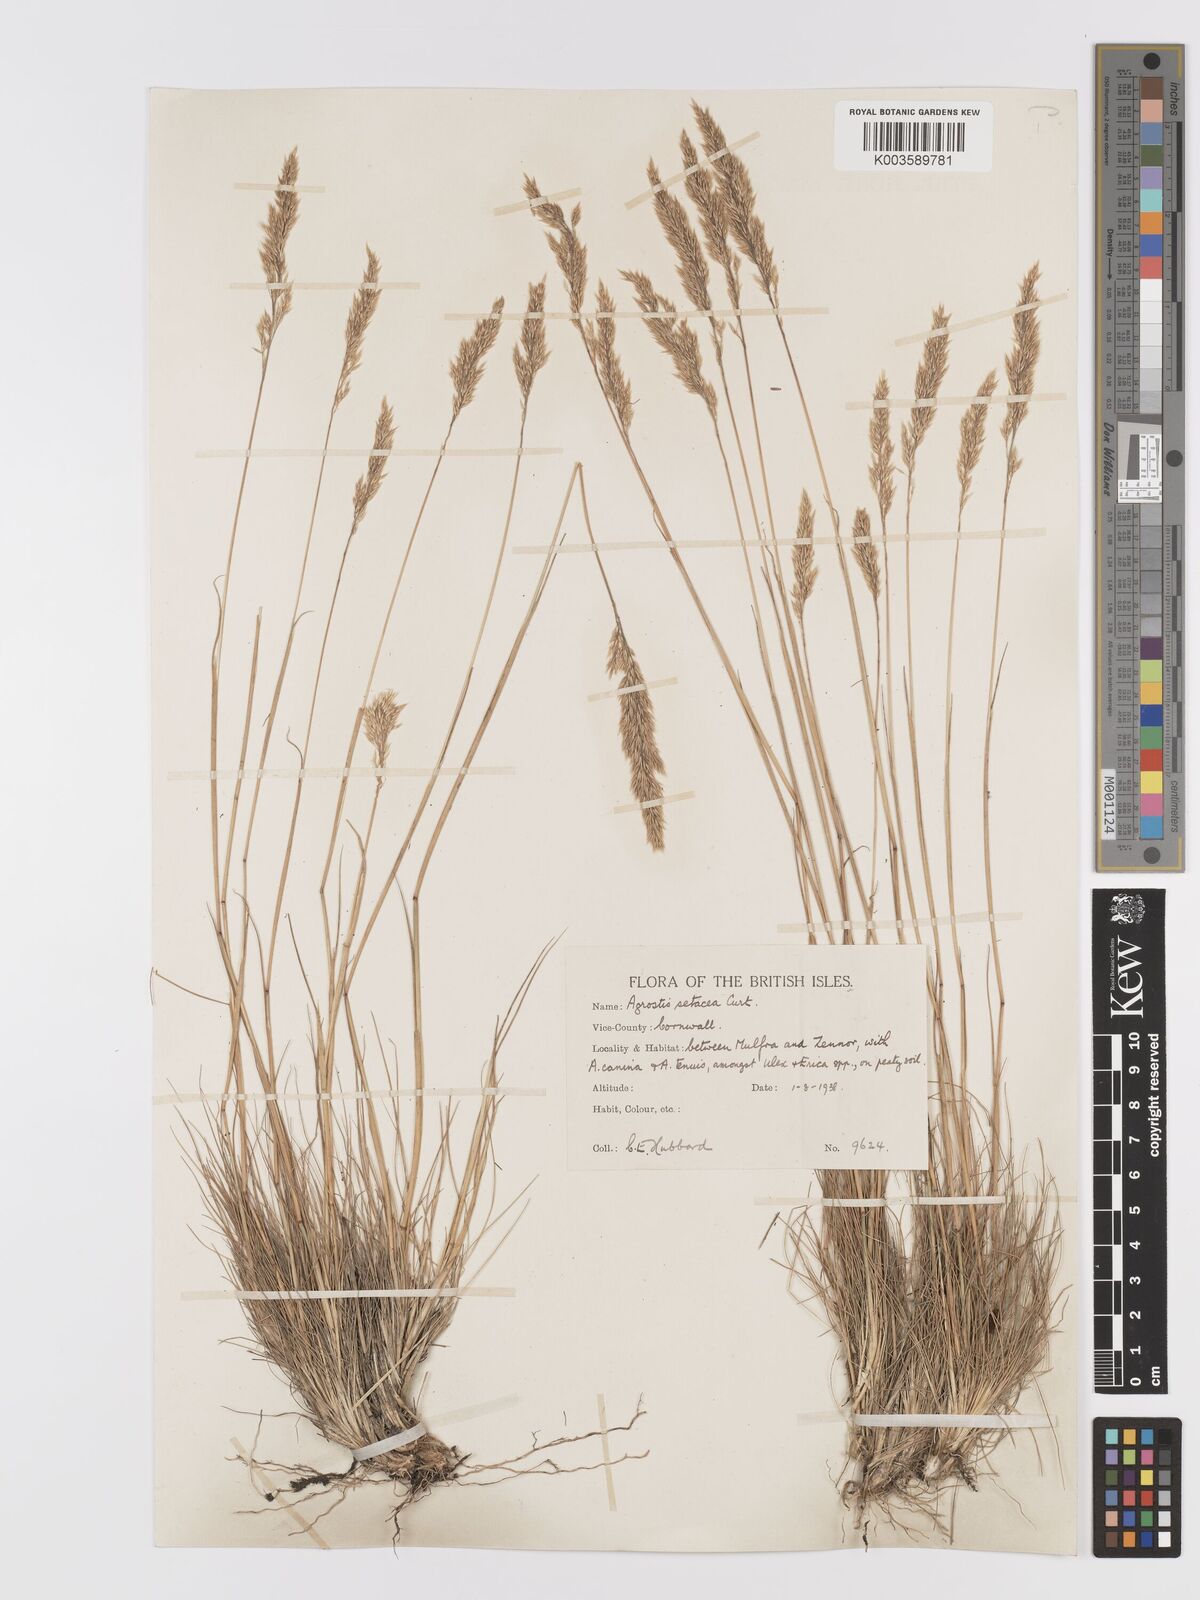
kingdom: Plantae
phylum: Tracheophyta
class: Liliopsida
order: Poales
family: Poaceae
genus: Alpagrostis
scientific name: Alpagrostis setacea
